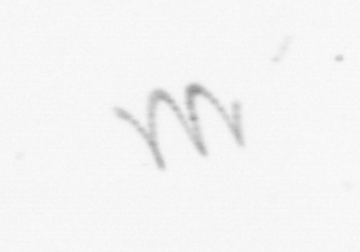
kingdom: Chromista
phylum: Ochrophyta
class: Bacillariophyceae
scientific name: Bacillariophyceae
